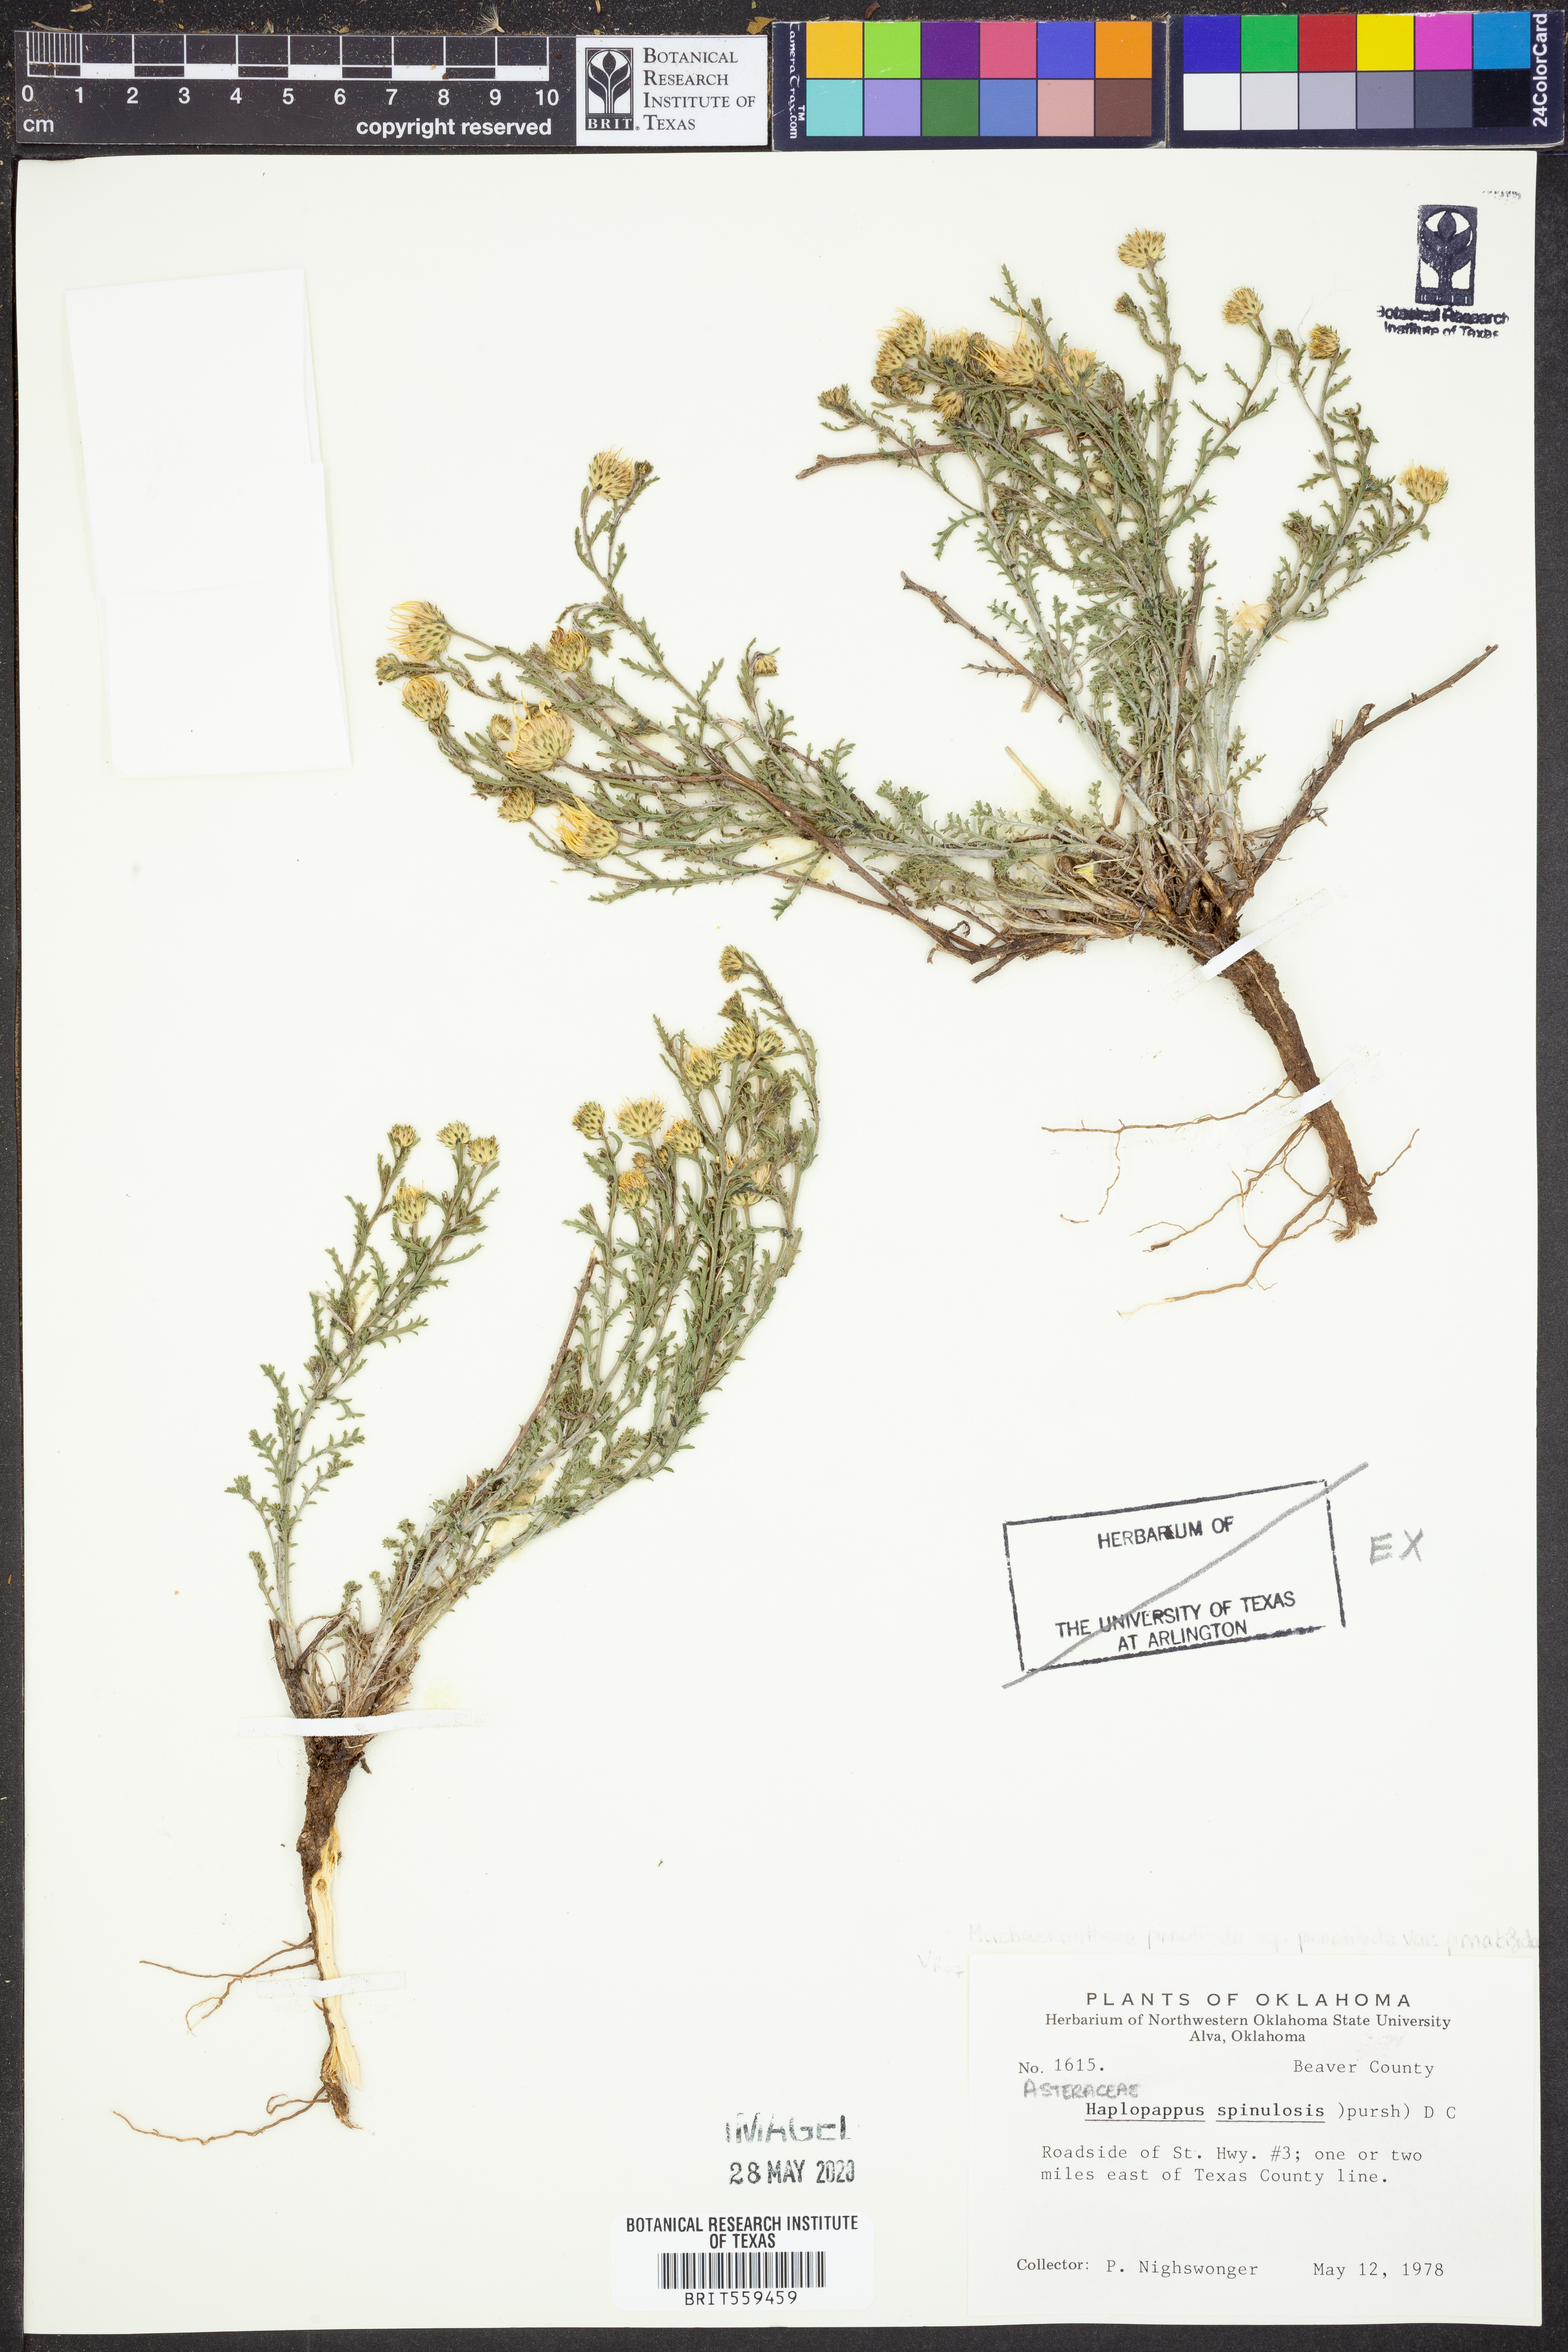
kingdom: Plantae
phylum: Tracheophyta
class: Magnoliopsida
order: Asterales
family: Asteraceae
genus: Xanthisma
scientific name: Xanthisma spinulosum
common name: Spiny goldenweed
